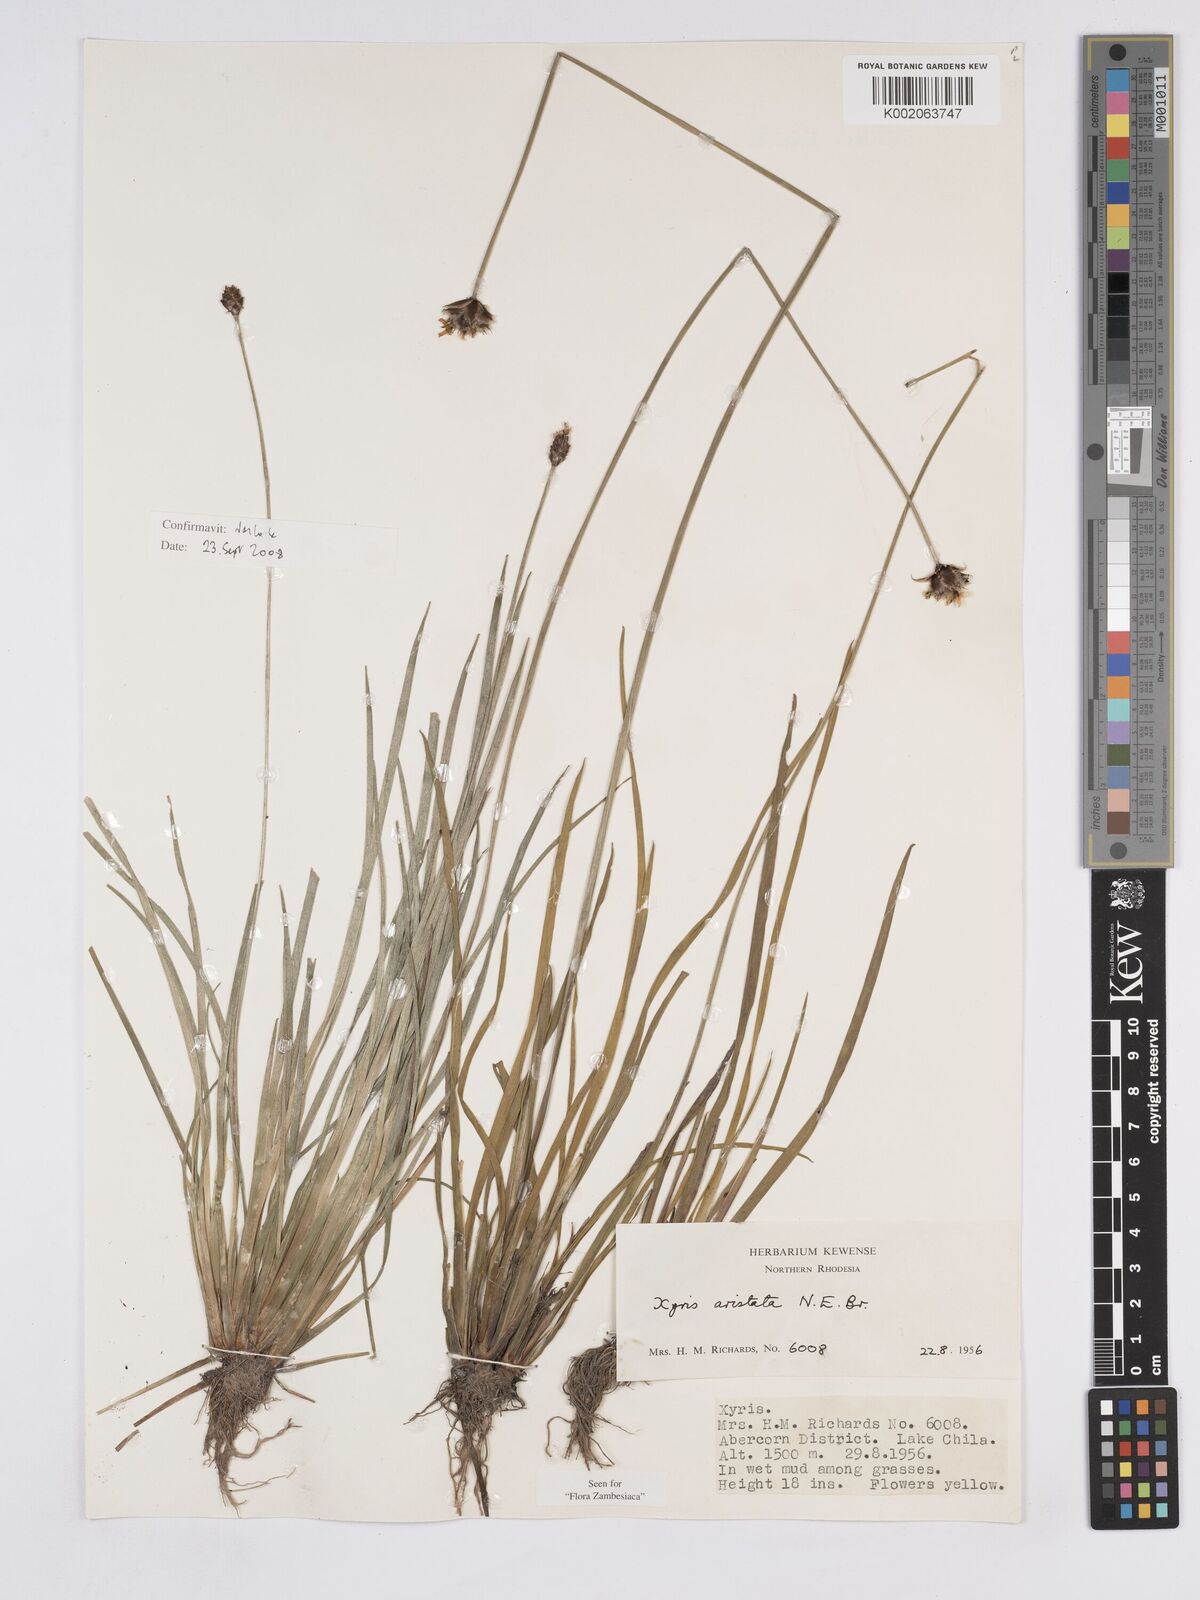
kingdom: Plantae
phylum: Tracheophyta
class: Liliopsida
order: Poales
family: Xyridaceae
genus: Xyris
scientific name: Xyris aristata
